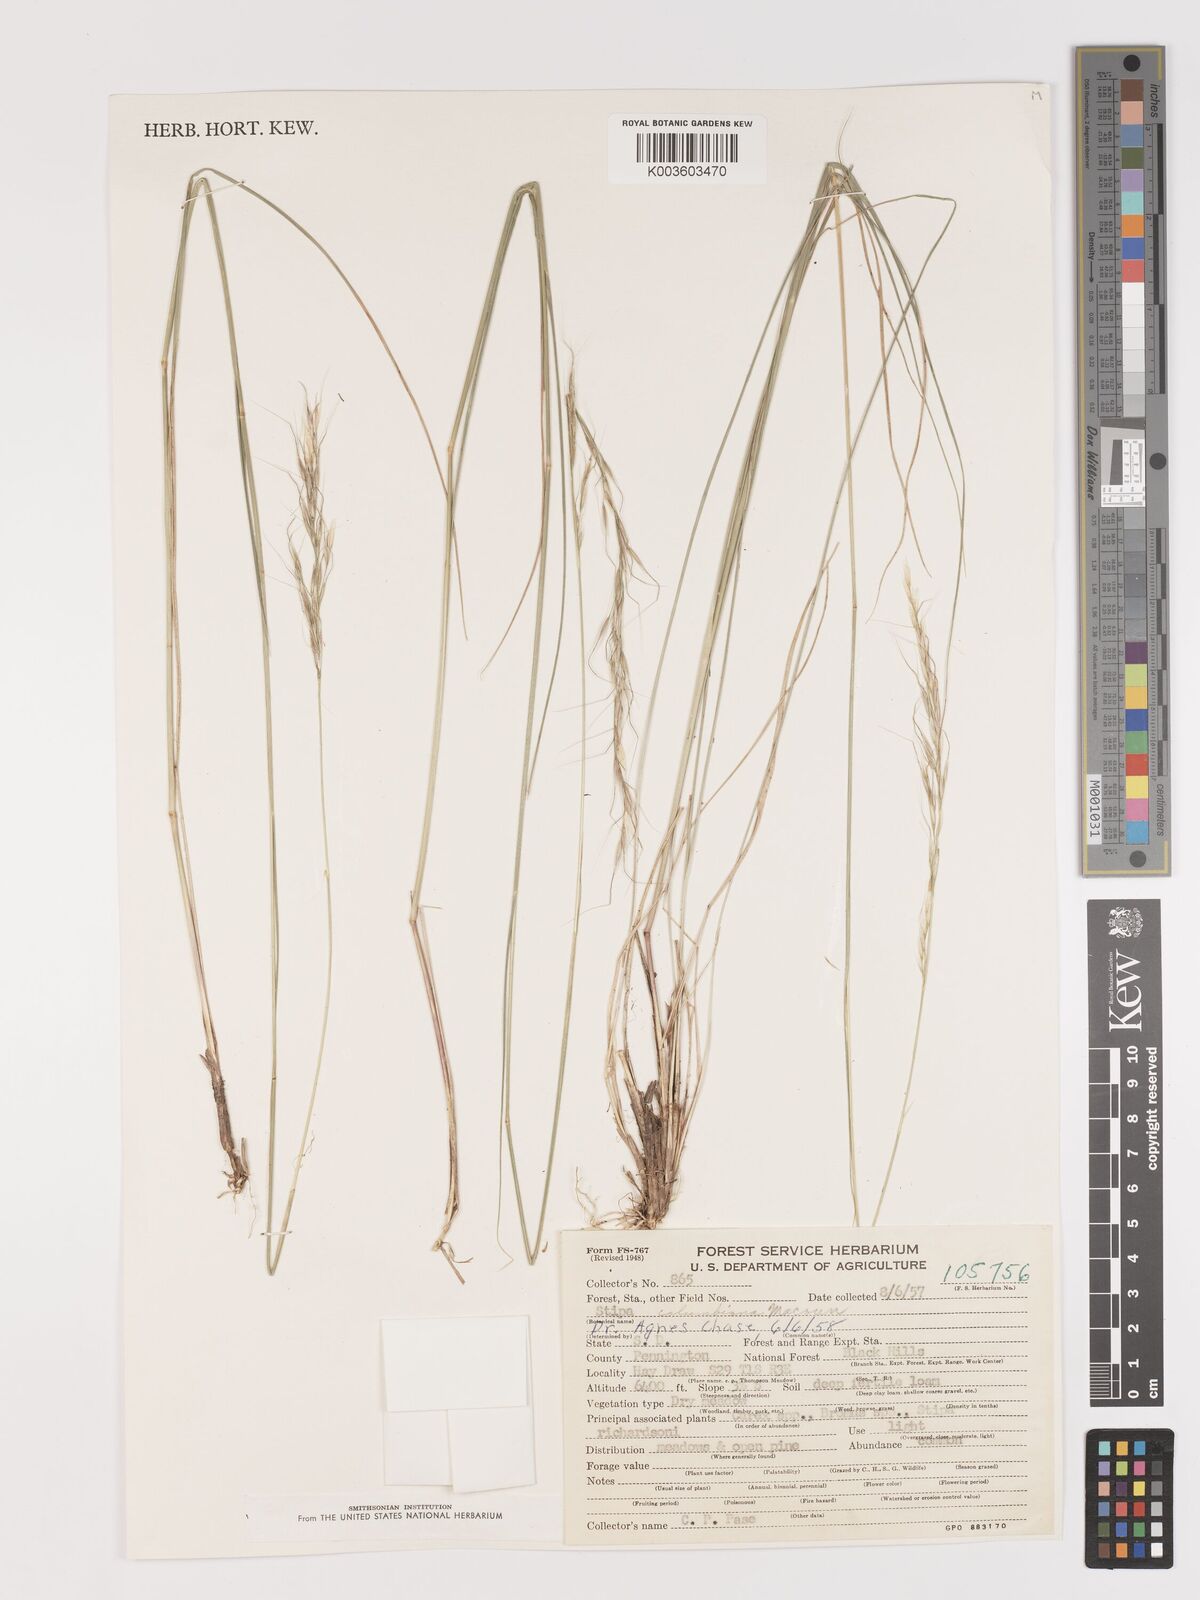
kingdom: Plantae
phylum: Tracheophyta
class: Liliopsida
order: Poales
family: Poaceae
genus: Eriocoma
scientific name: Eriocoma nelsonii
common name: Nelson's needlegrass
